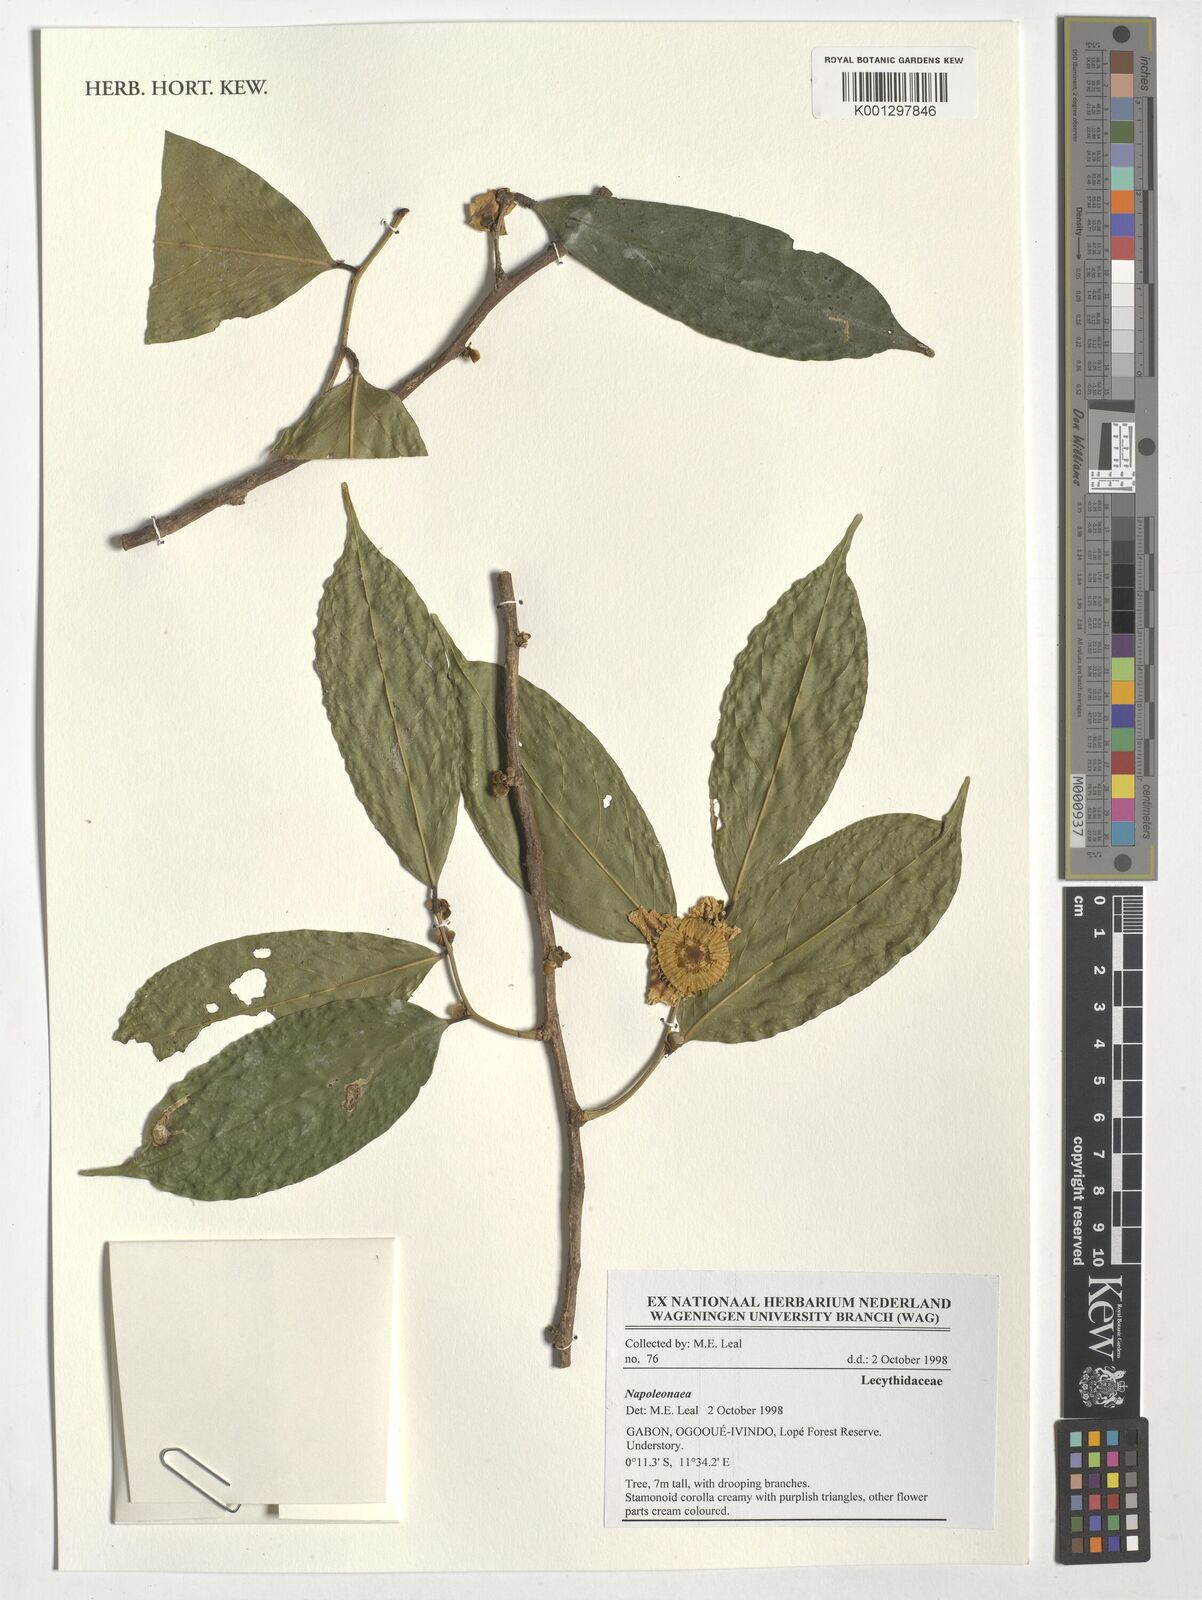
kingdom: Plantae
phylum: Tracheophyta
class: Magnoliopsida
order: Ericales
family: Lecythidaceae
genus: Napoleonaea
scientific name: Napoleonaea
